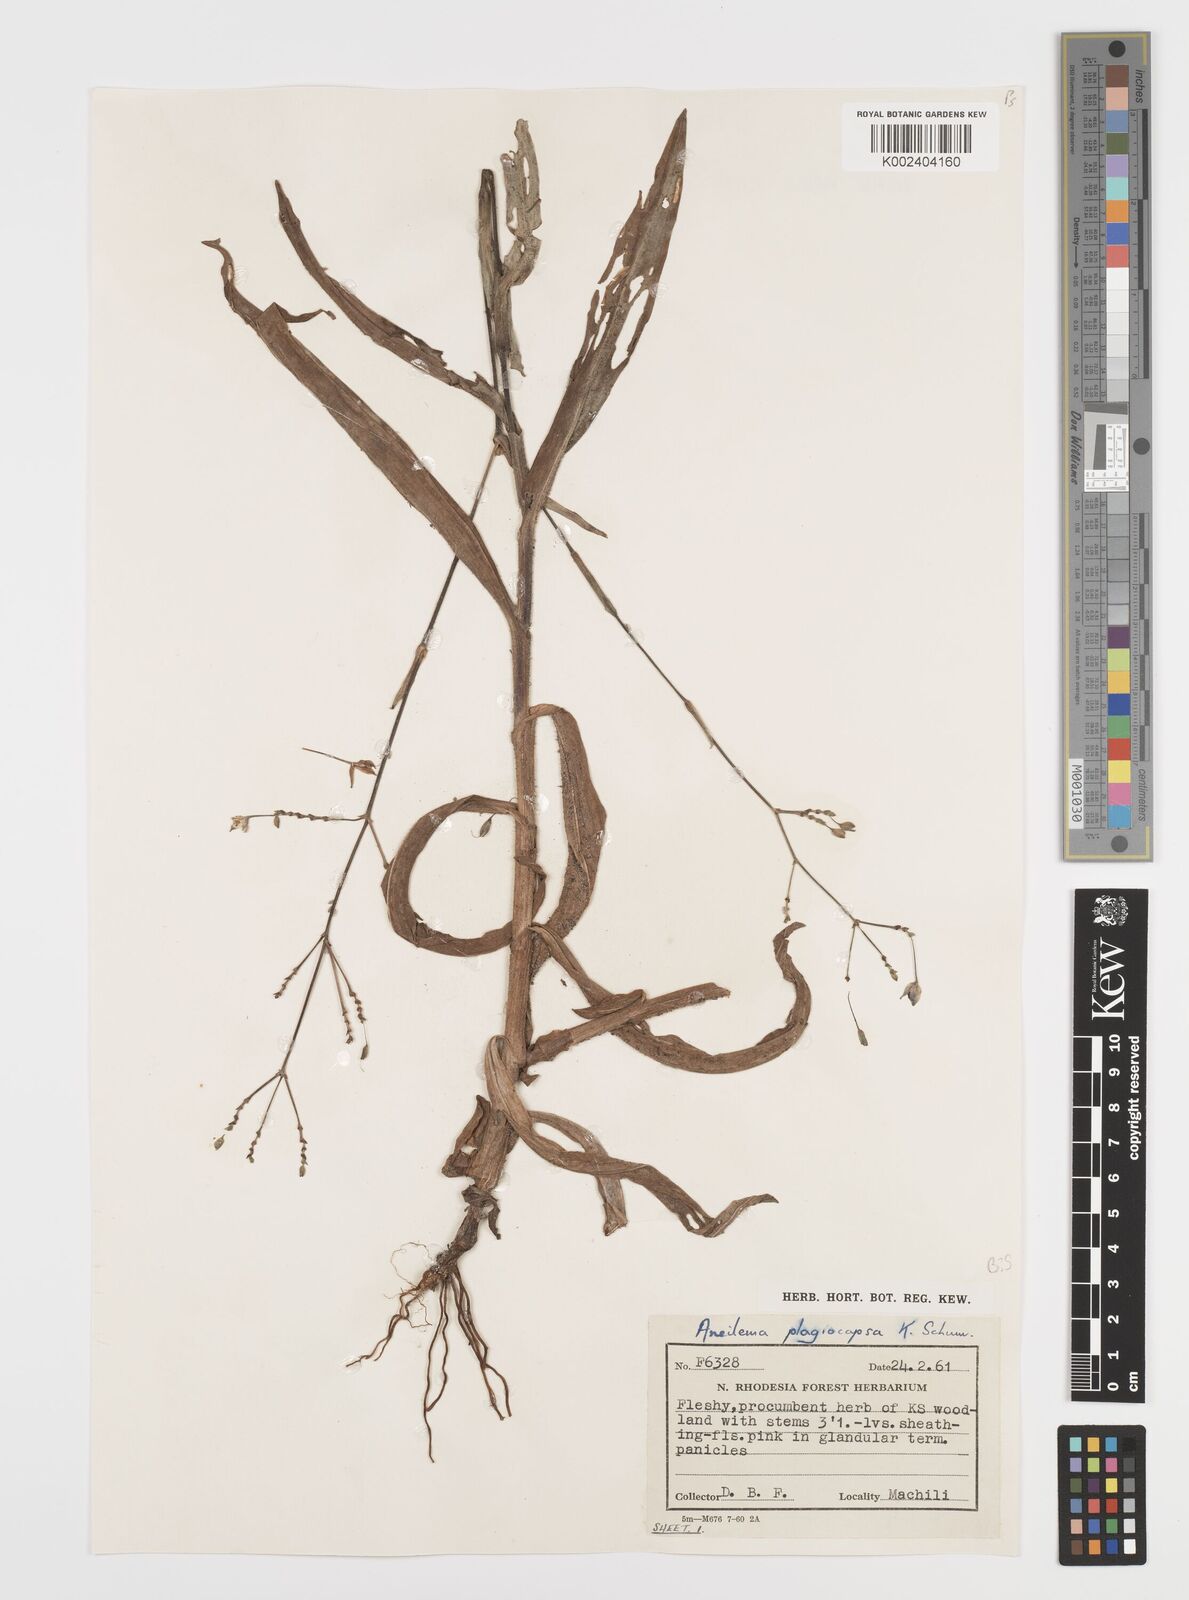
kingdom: Plantae
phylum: Tracheophyta
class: Liliopsida
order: Commelinales
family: Commelinaceae
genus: Aneilema
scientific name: Aneilema plagiocapsa
